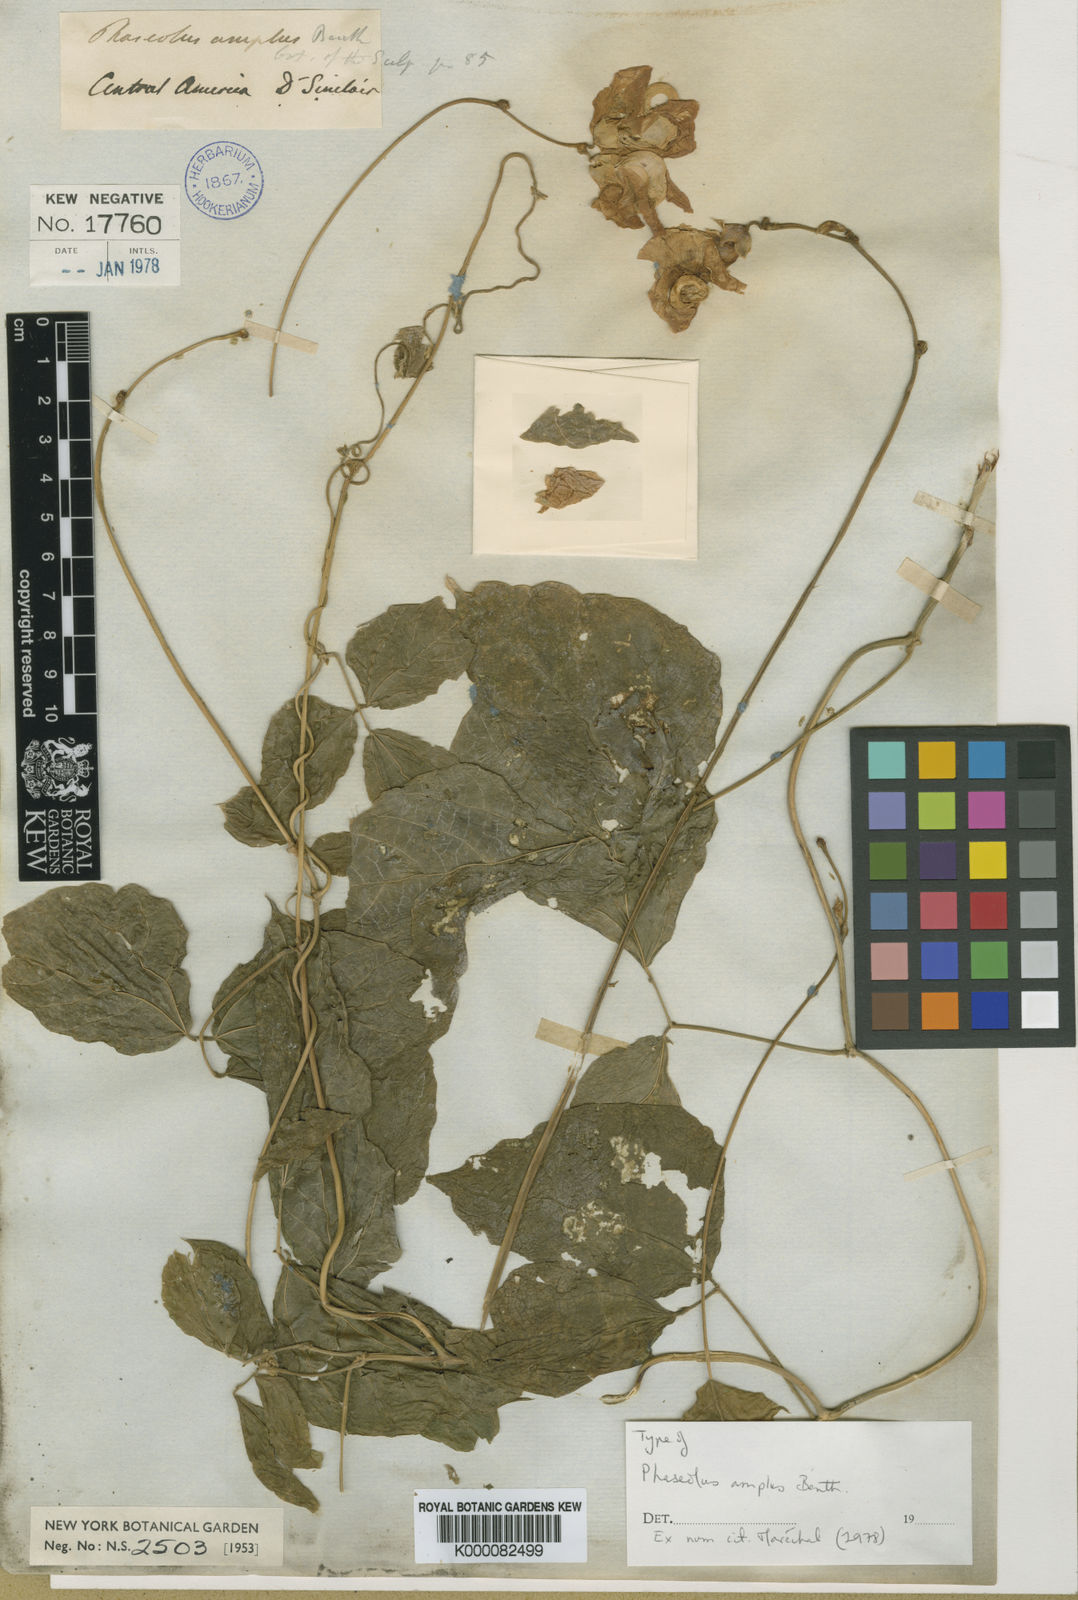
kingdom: Plantae
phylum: Tracheophyta
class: Magnoliopsida
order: Fabales
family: Fabaceae
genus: Vigna
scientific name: Vigna
